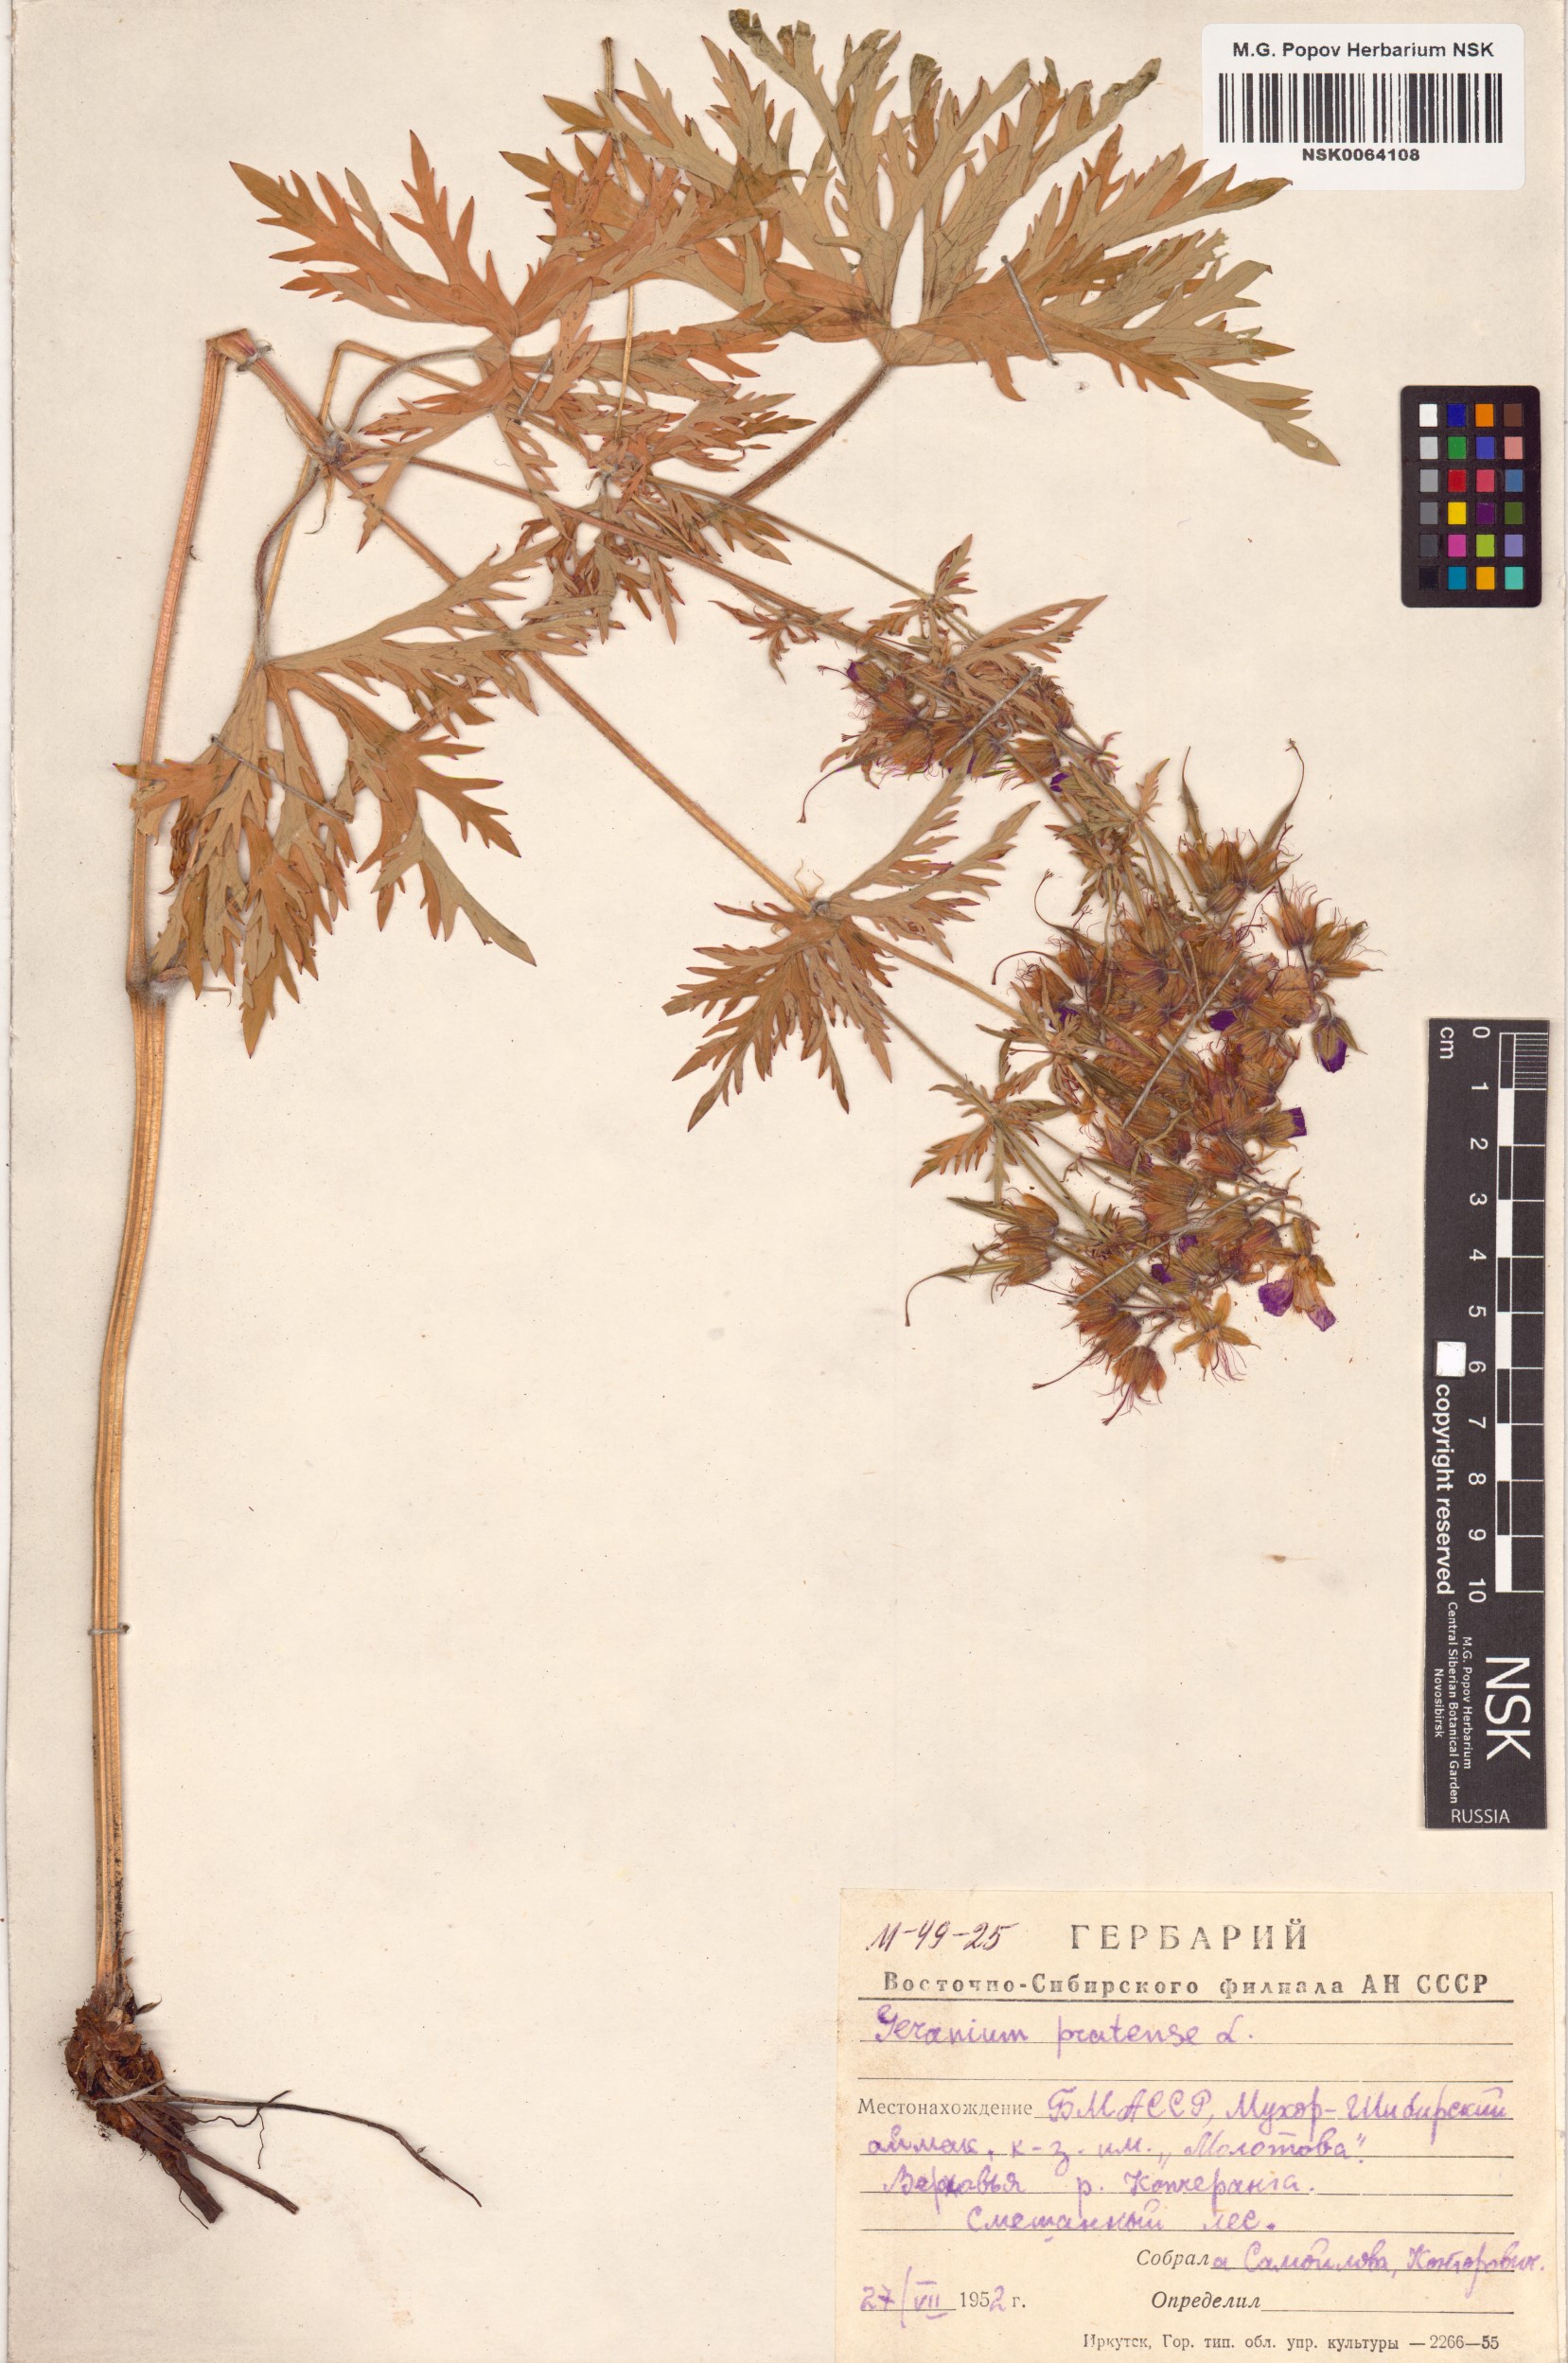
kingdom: Plantae
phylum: Tracheophyta
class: Magnoliopsida
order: Geraniales
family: Geraniaceae
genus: Geranium
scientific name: Geranium pratense
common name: Meadow crane's-bill
